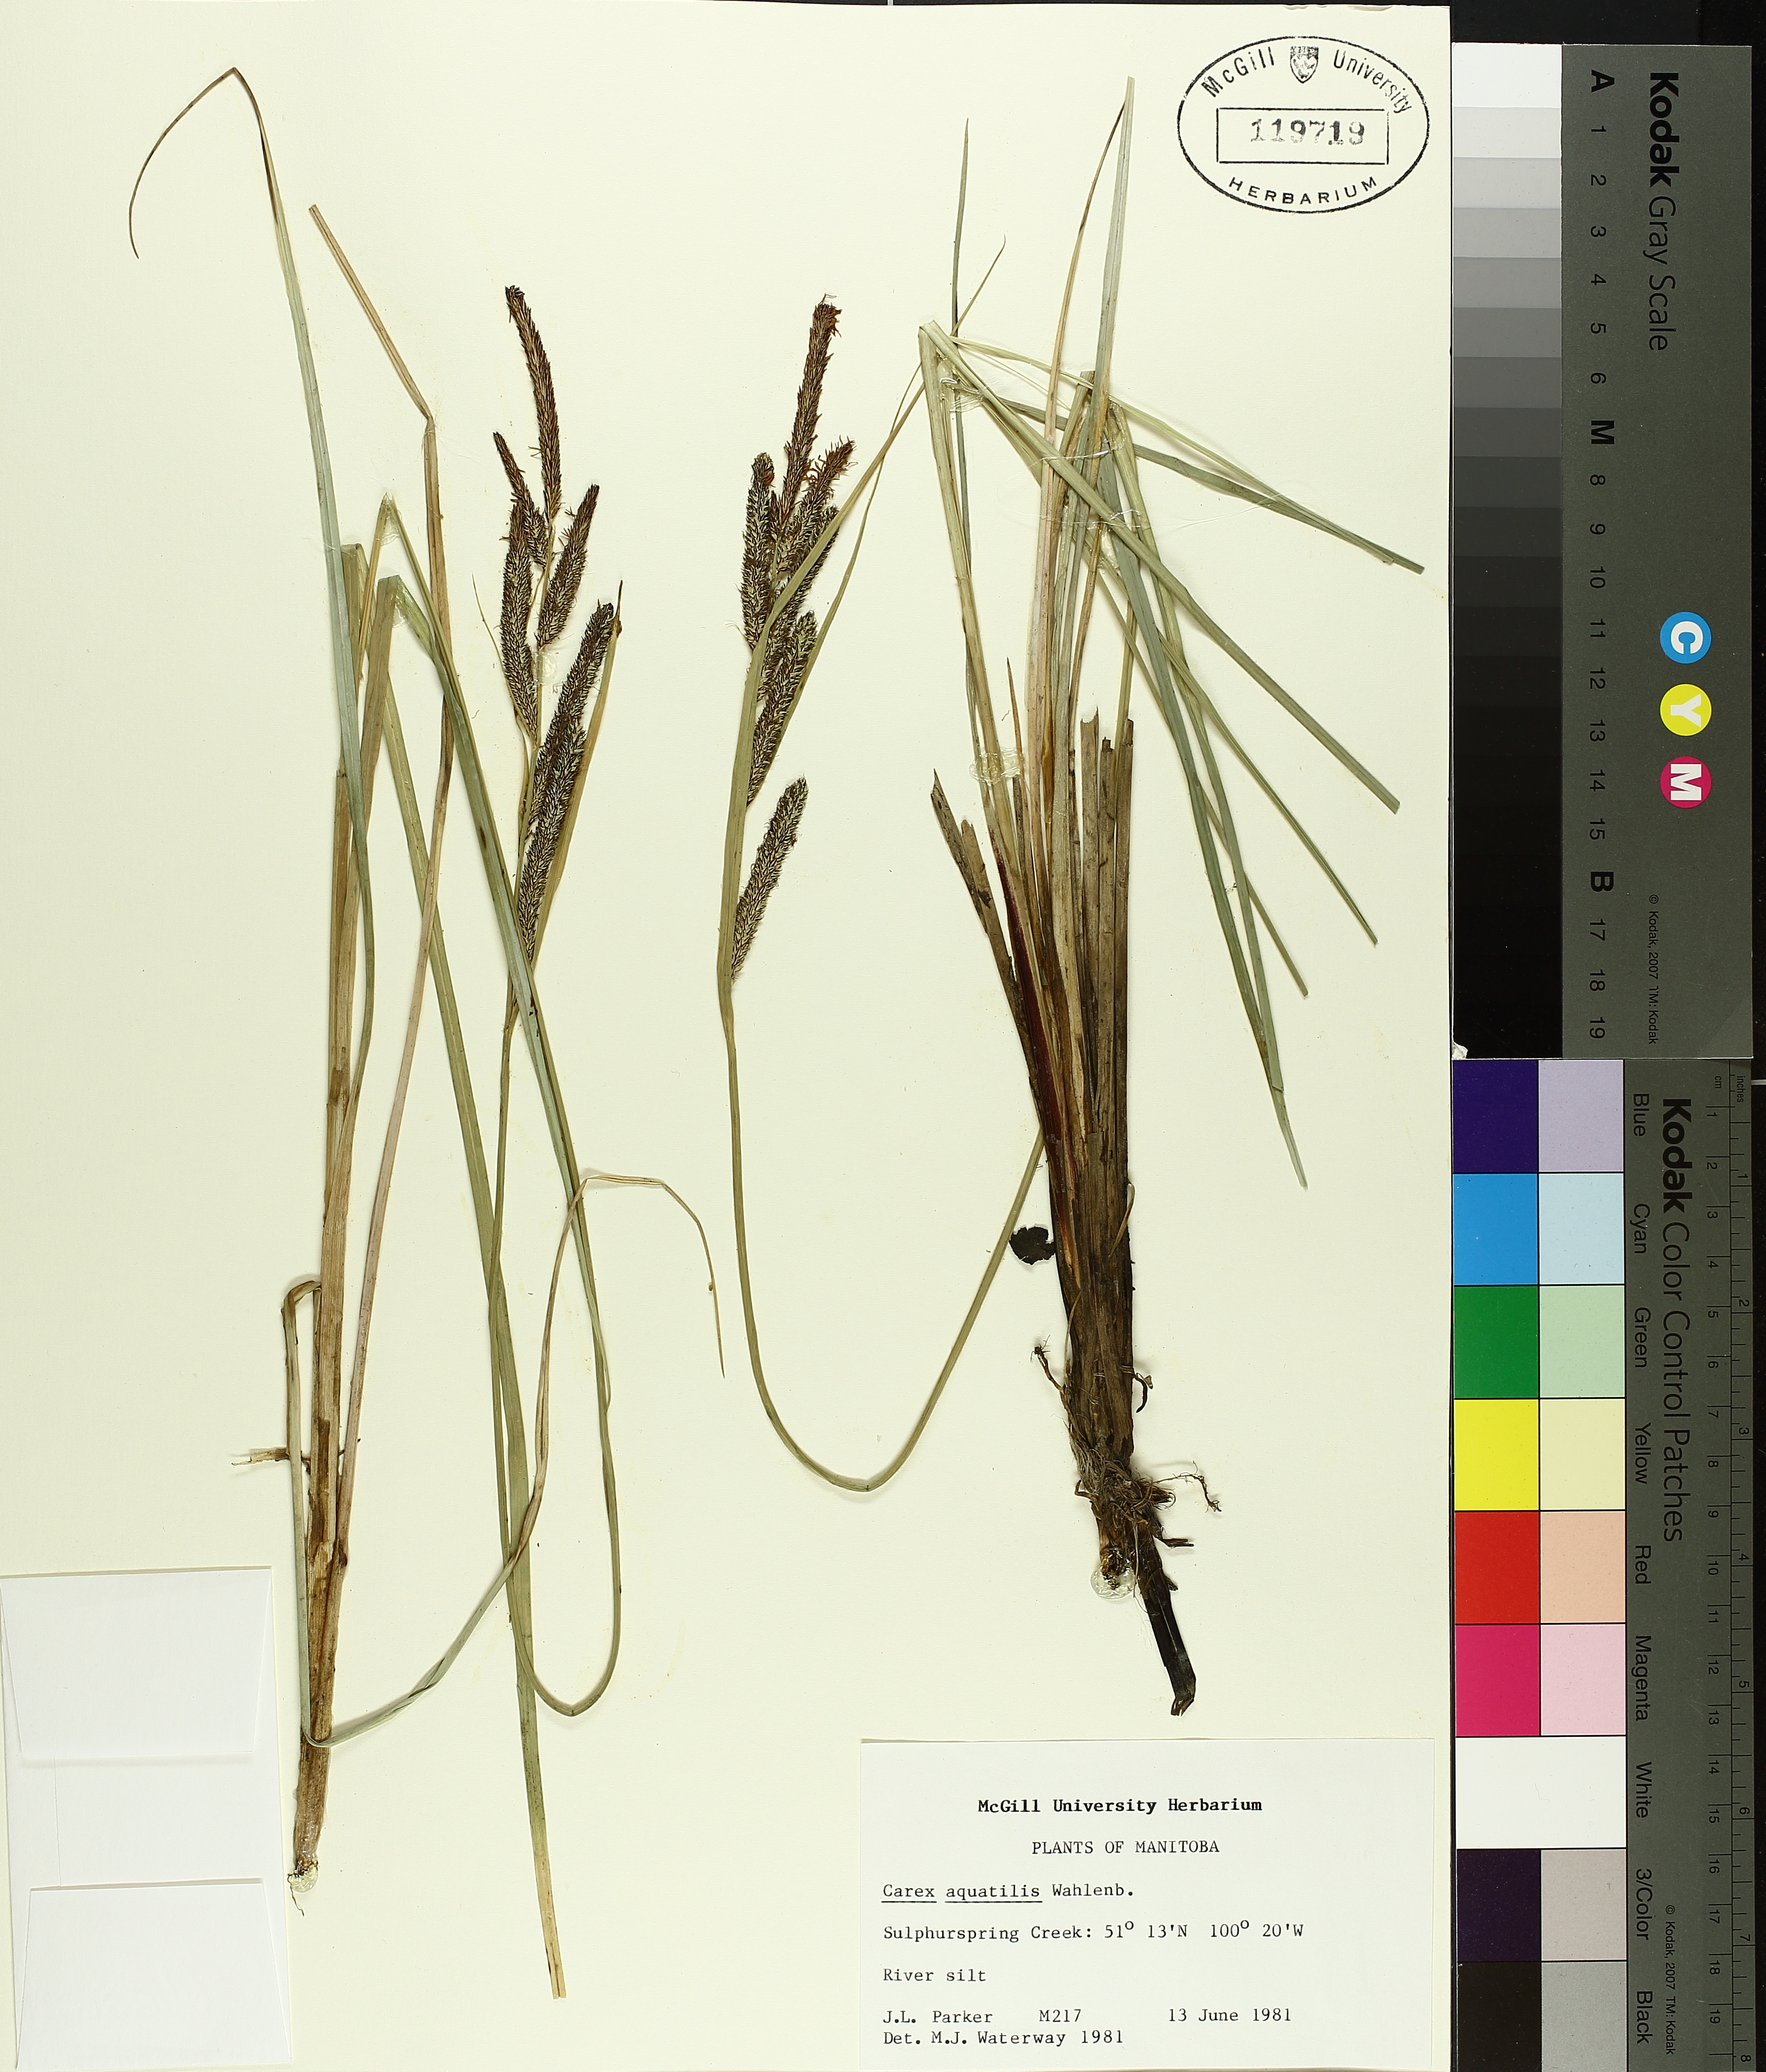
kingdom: Plantae
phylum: Tracheophyta
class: Liliopsida
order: Poales
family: Cyperaceae
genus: Carex
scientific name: Carex aquatilis
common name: Water sedge
